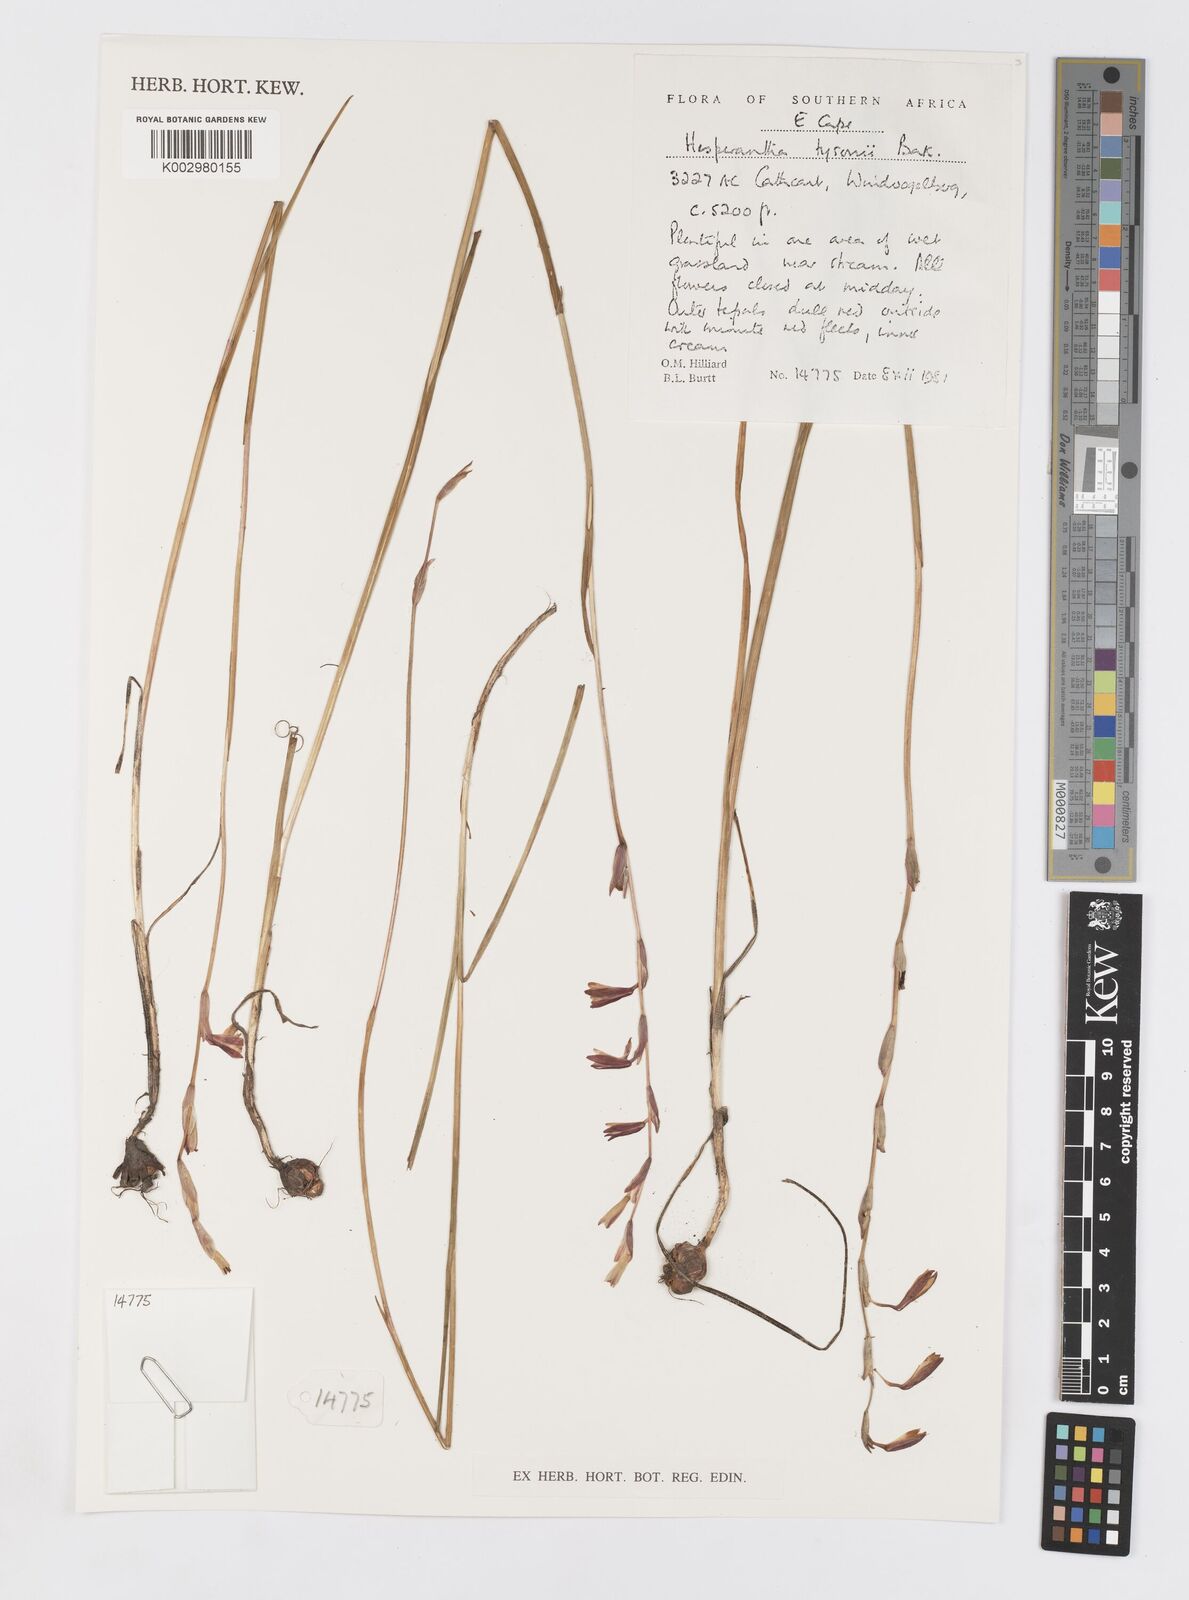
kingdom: Plantae
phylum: Tracheophyta
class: Liliopsida
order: Asparagales
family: Iridaceae
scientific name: Iridaceae
